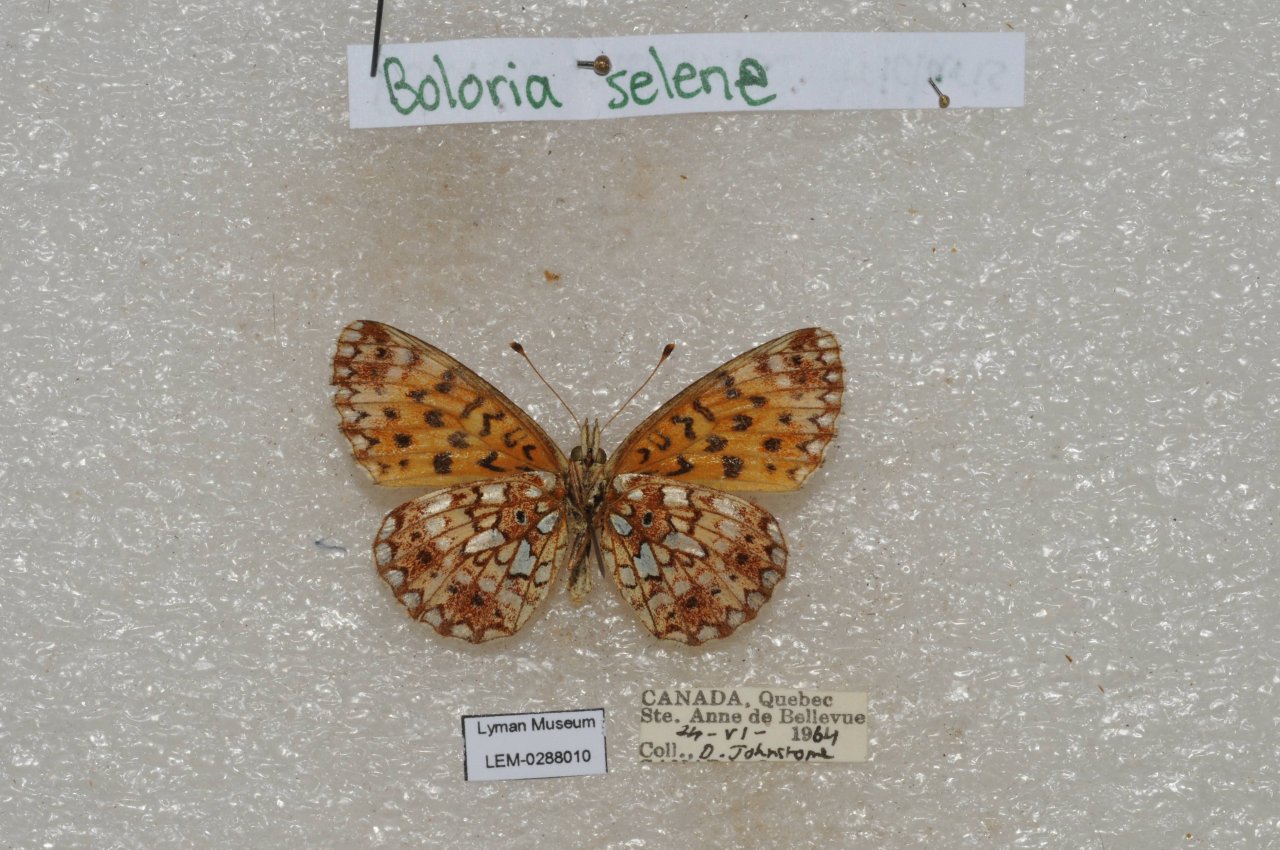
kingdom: Animalia
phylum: Arthropoda
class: Insecta
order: Lepidoptera
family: Nymphalidae
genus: Boloria
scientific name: Boloria selene
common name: Silver-bordered Fritillary
